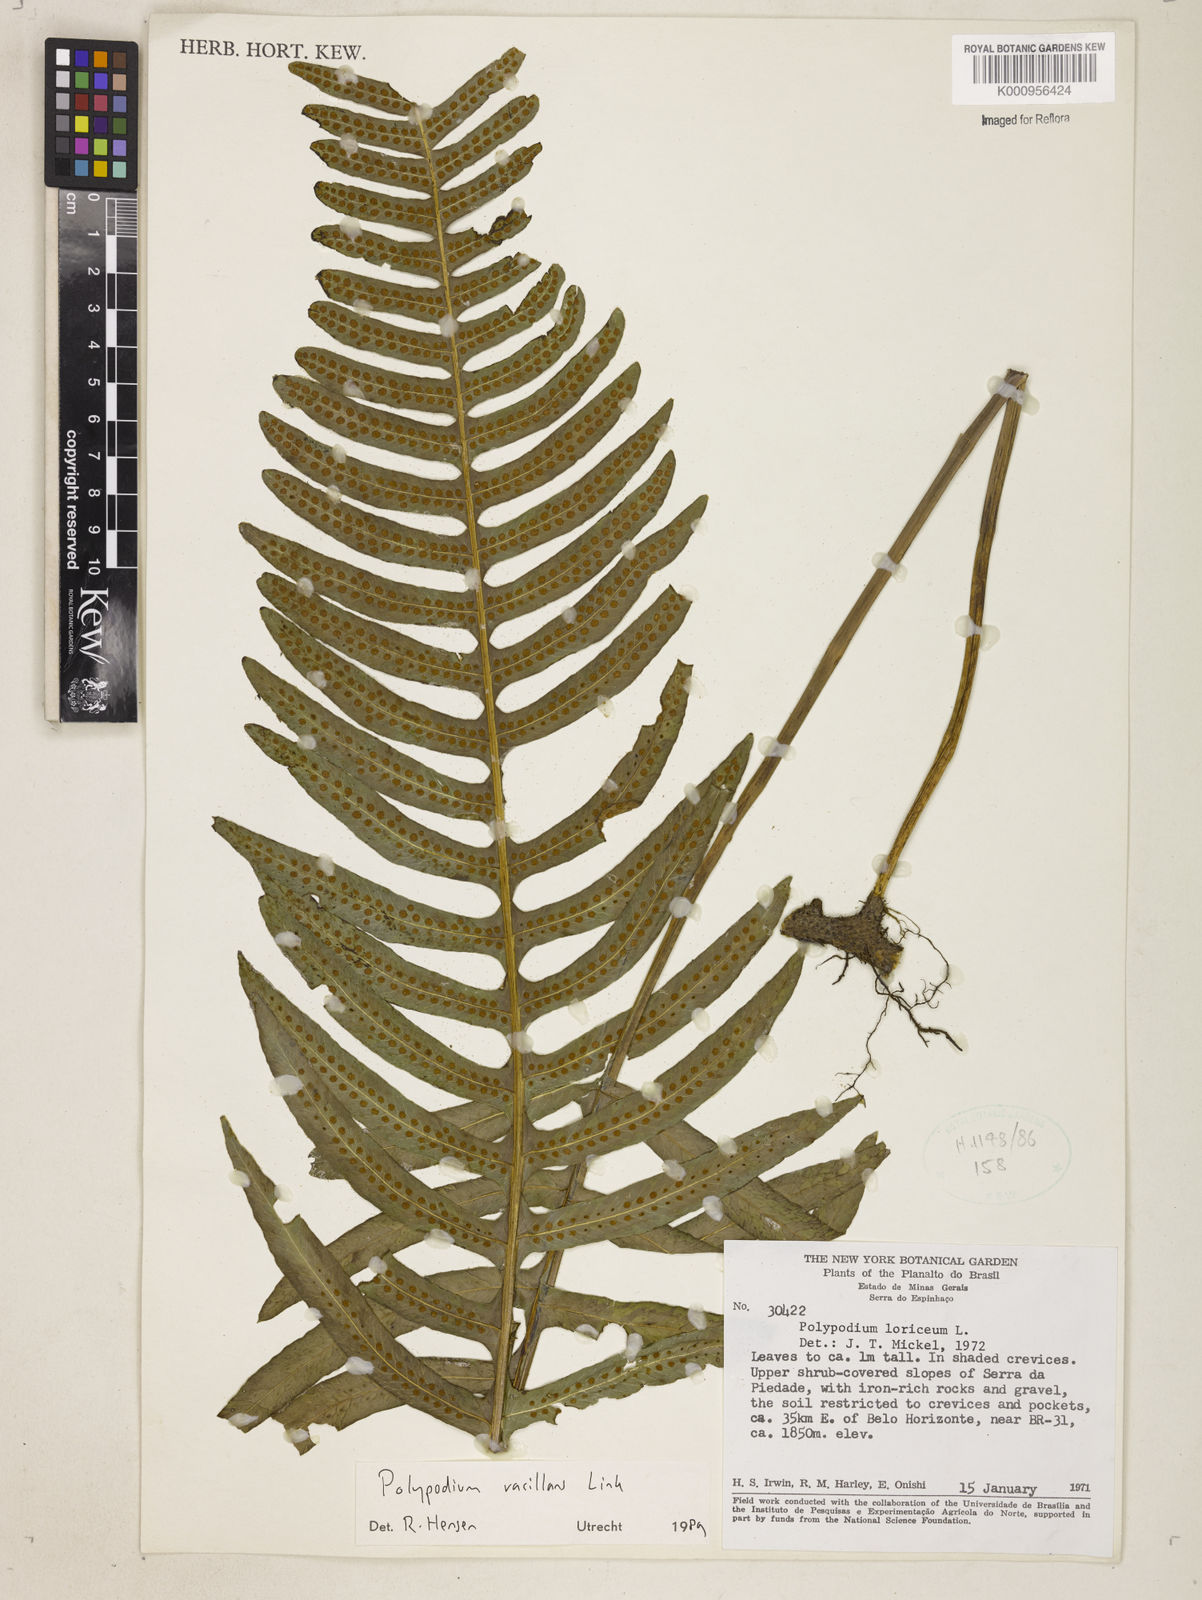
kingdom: Plantae
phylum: Tracheophyta
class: Polypodiopsida
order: Polypodiales
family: Polypodiaceae
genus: Serpocaulon
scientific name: Serpocaulon vacillans
